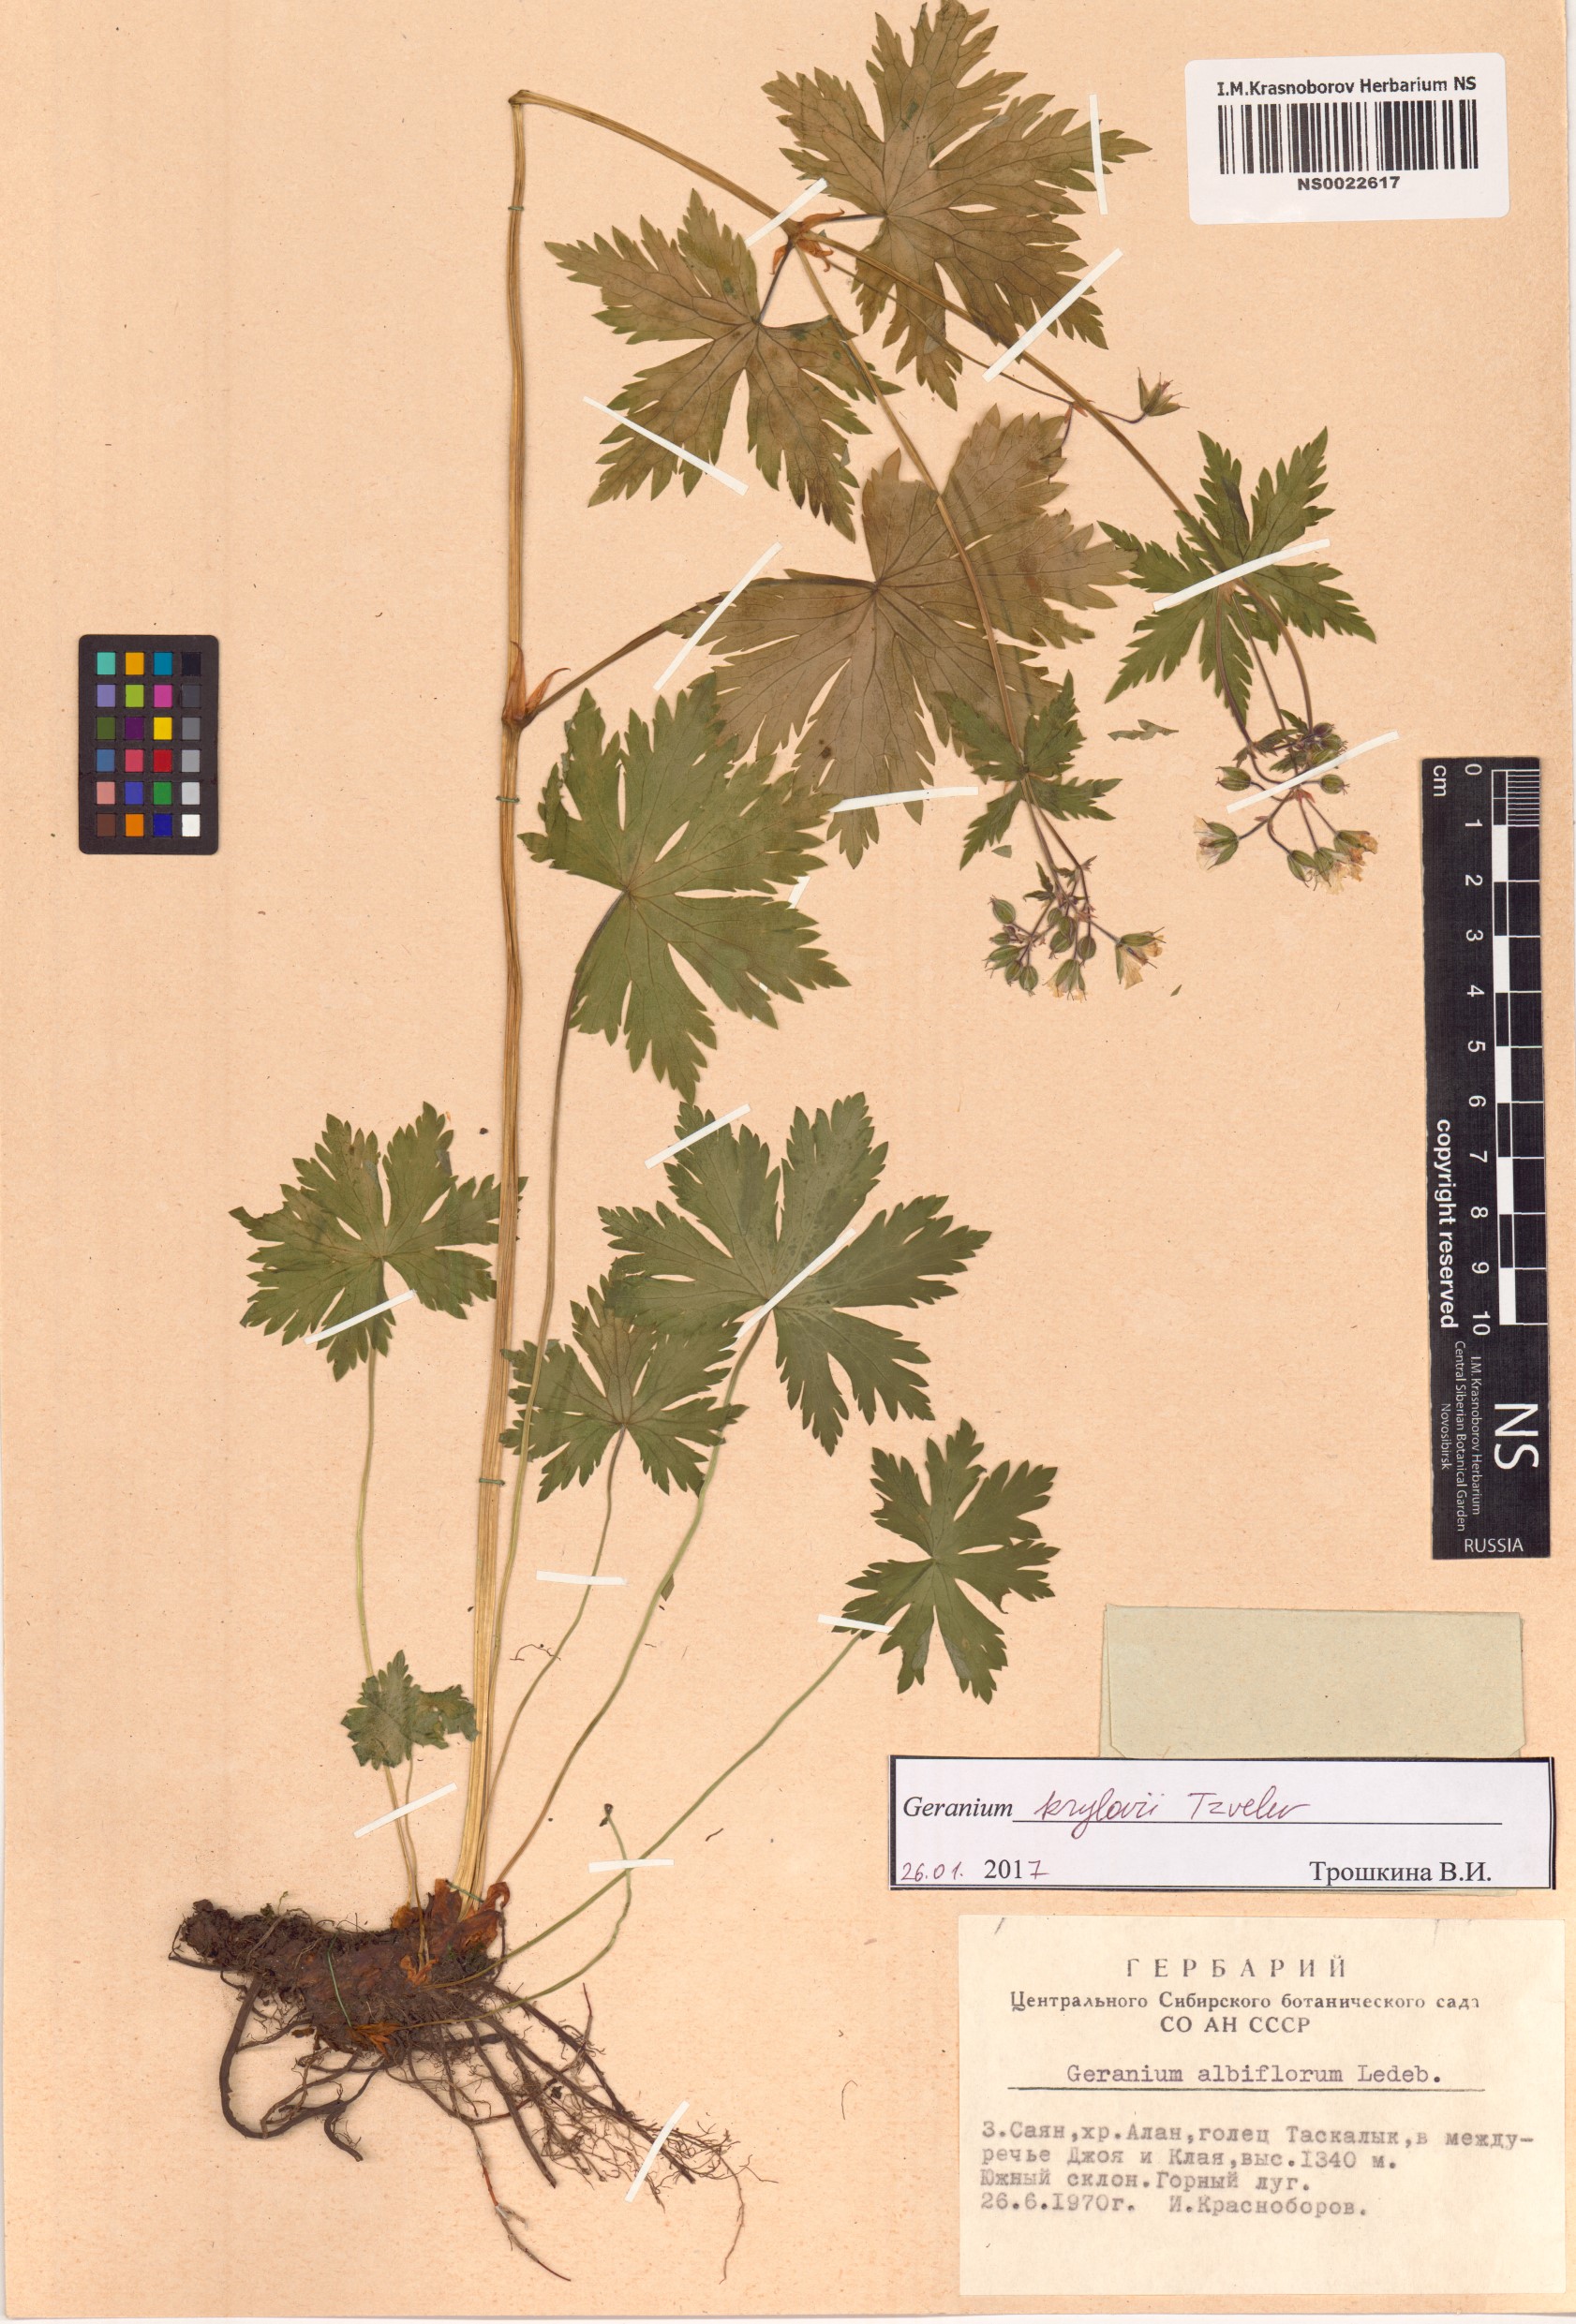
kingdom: Plantae
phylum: Tracheophyta
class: Magnoliopsida
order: Geraniales
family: Geraniaceae
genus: Geranium
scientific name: Geranium sylvaticum
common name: Wood crane's-bill
